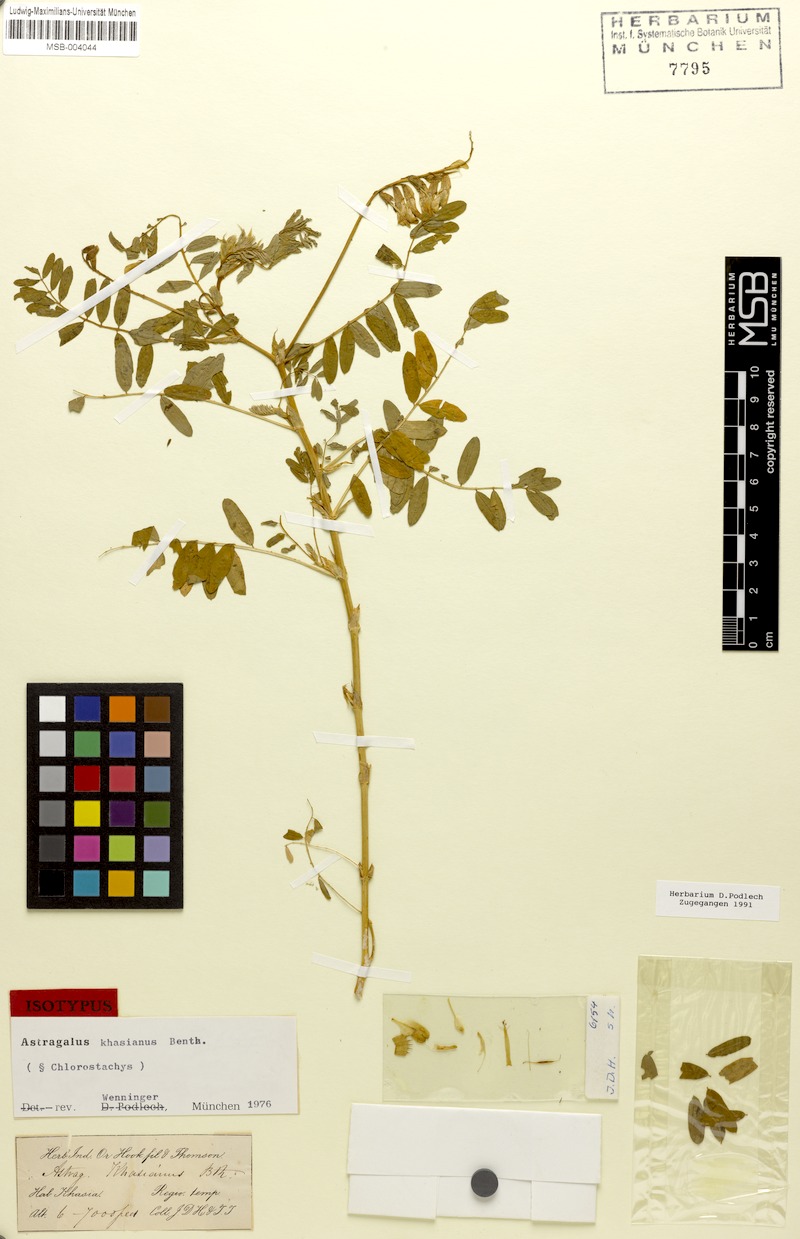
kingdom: Plantae
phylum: Tracheophyta
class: Magnoliopsida
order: Fabales
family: Fabaceae
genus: Astragalus
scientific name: Astragalus khasianus
